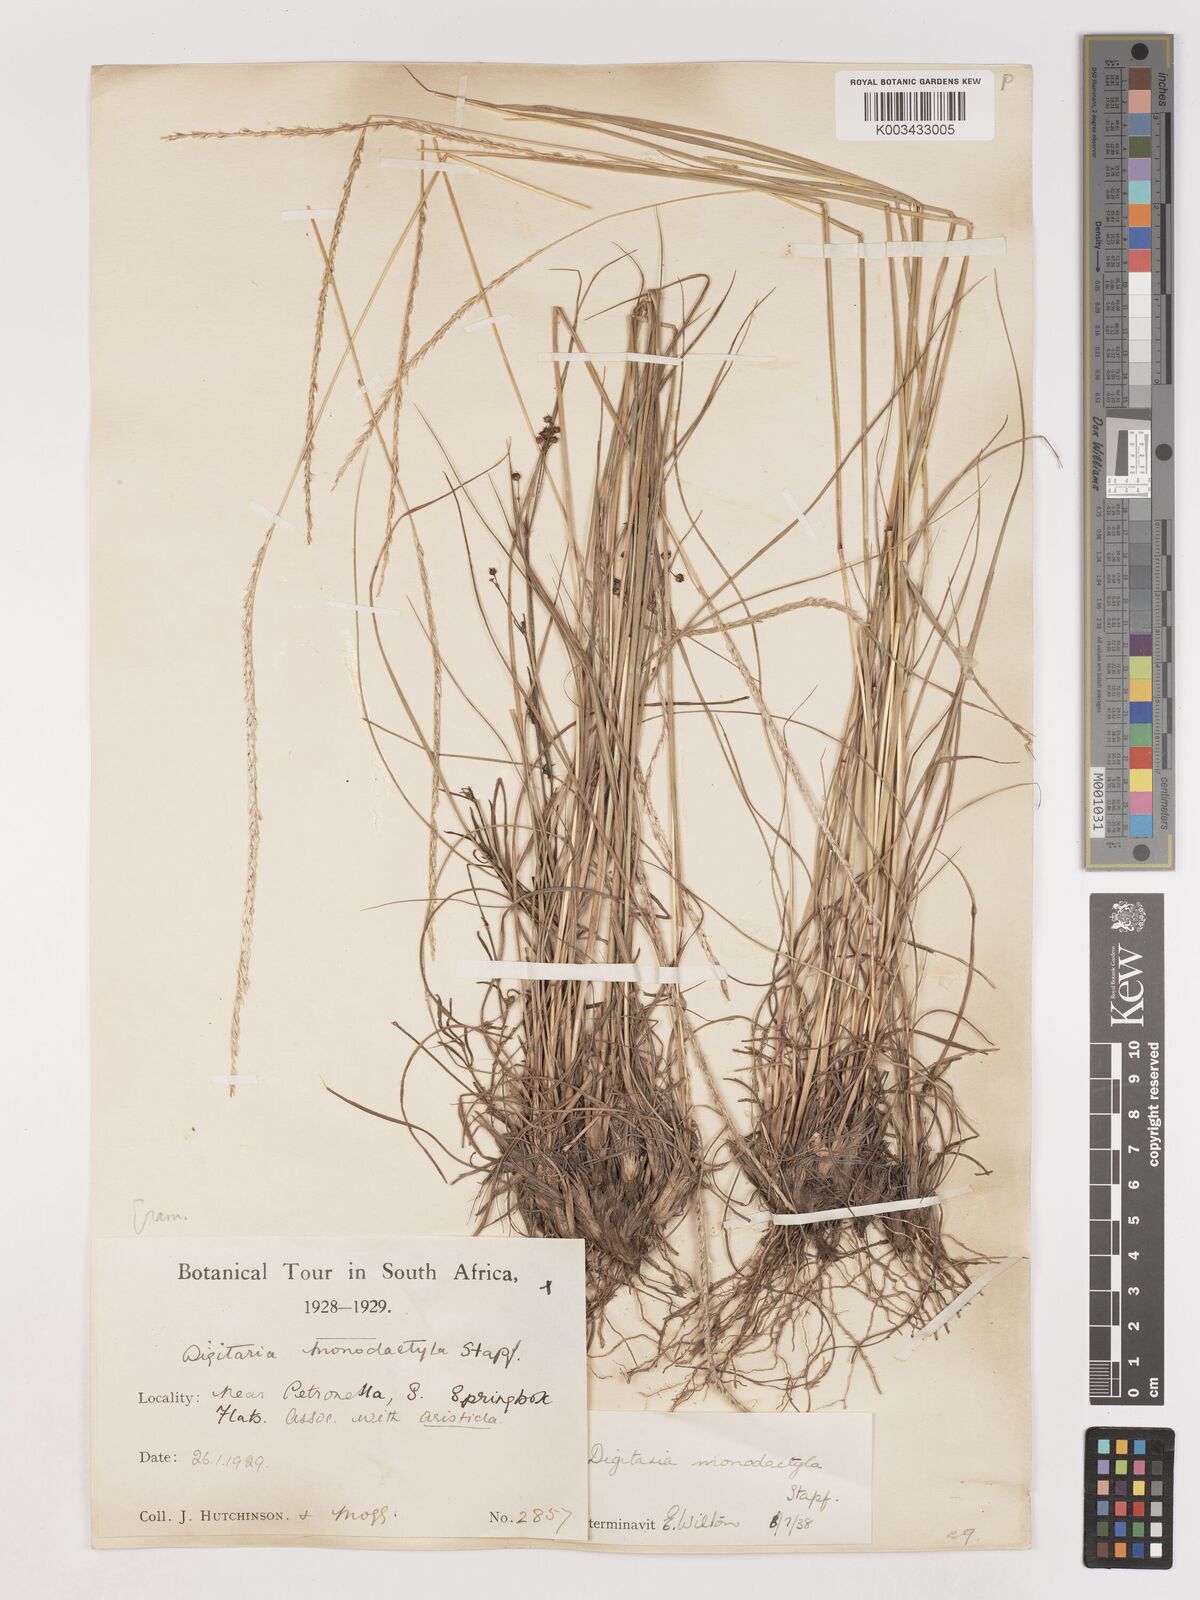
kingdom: Plantae
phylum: Tracheophyta
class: Liliopsida
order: Poales
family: Poaceae
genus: Digitaria
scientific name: Digitaria monodactyla
